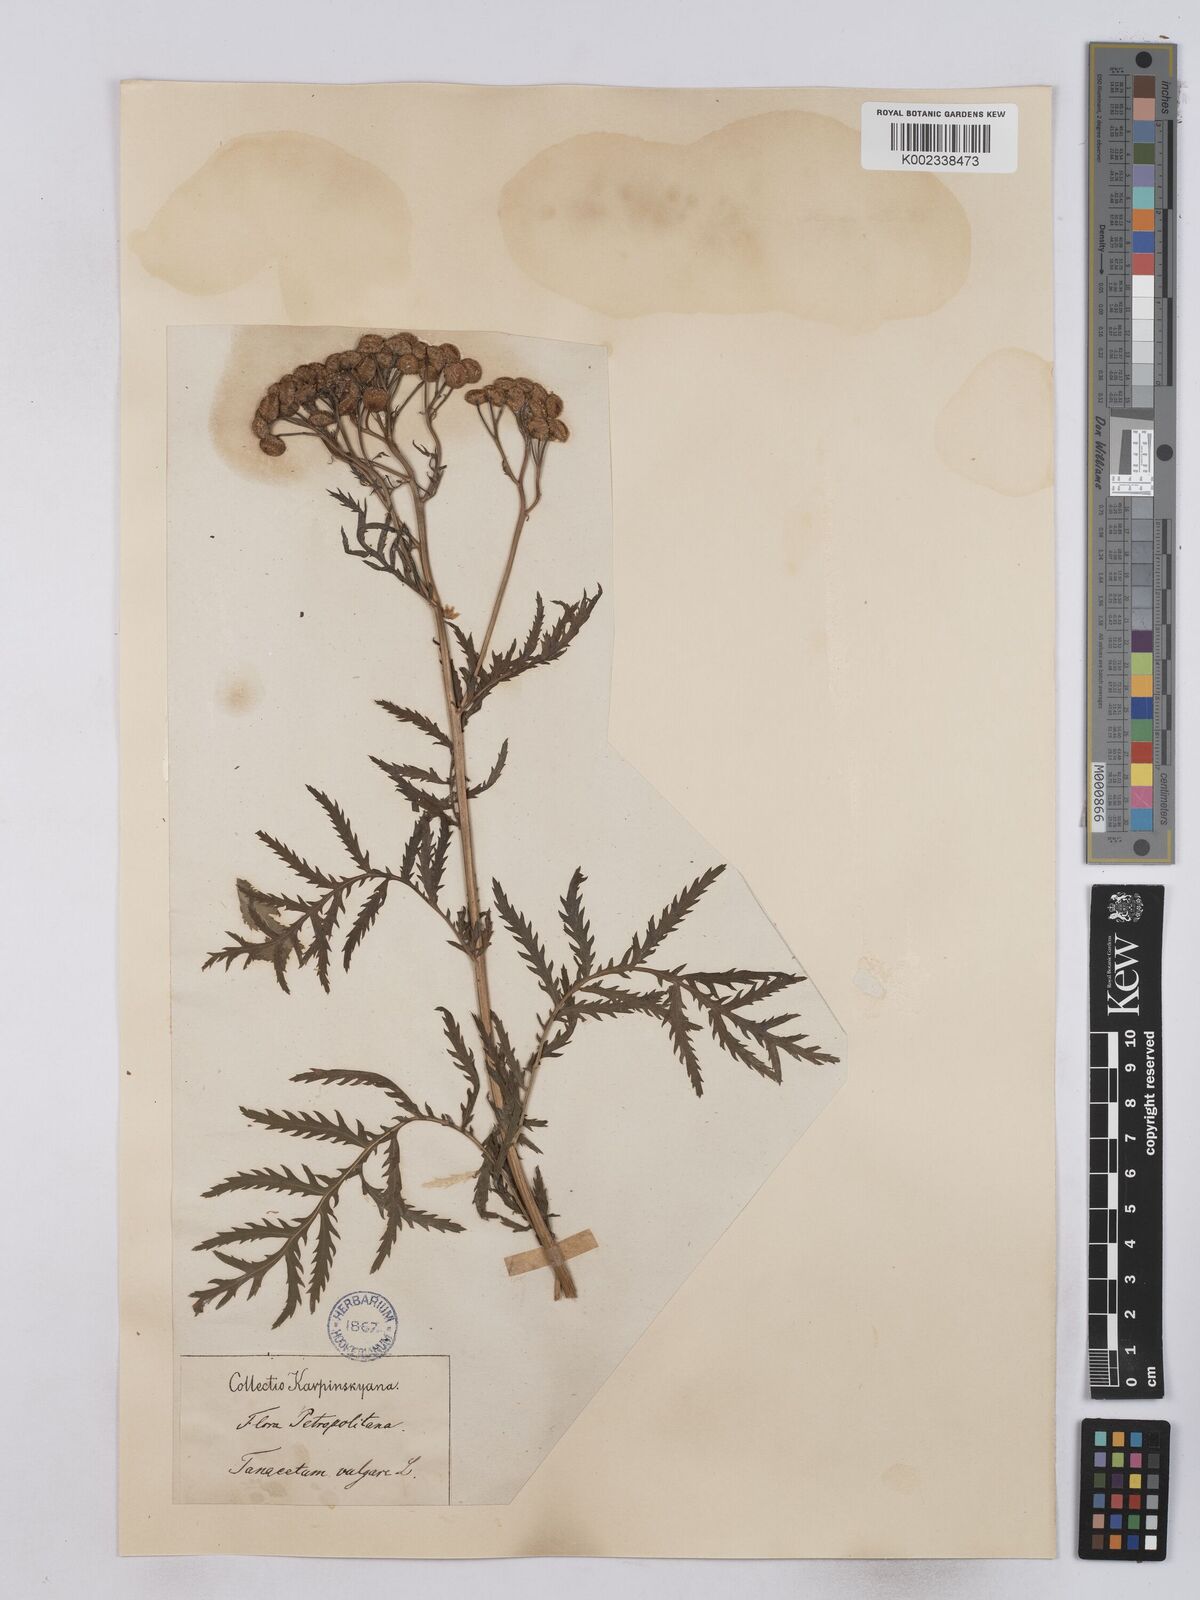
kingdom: Plantae
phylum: Tracheophyta
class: Magnoliopsida
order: Asterales
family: Asteraceae
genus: Tanacetum
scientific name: Tanacetum vulgare
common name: Common tansy
